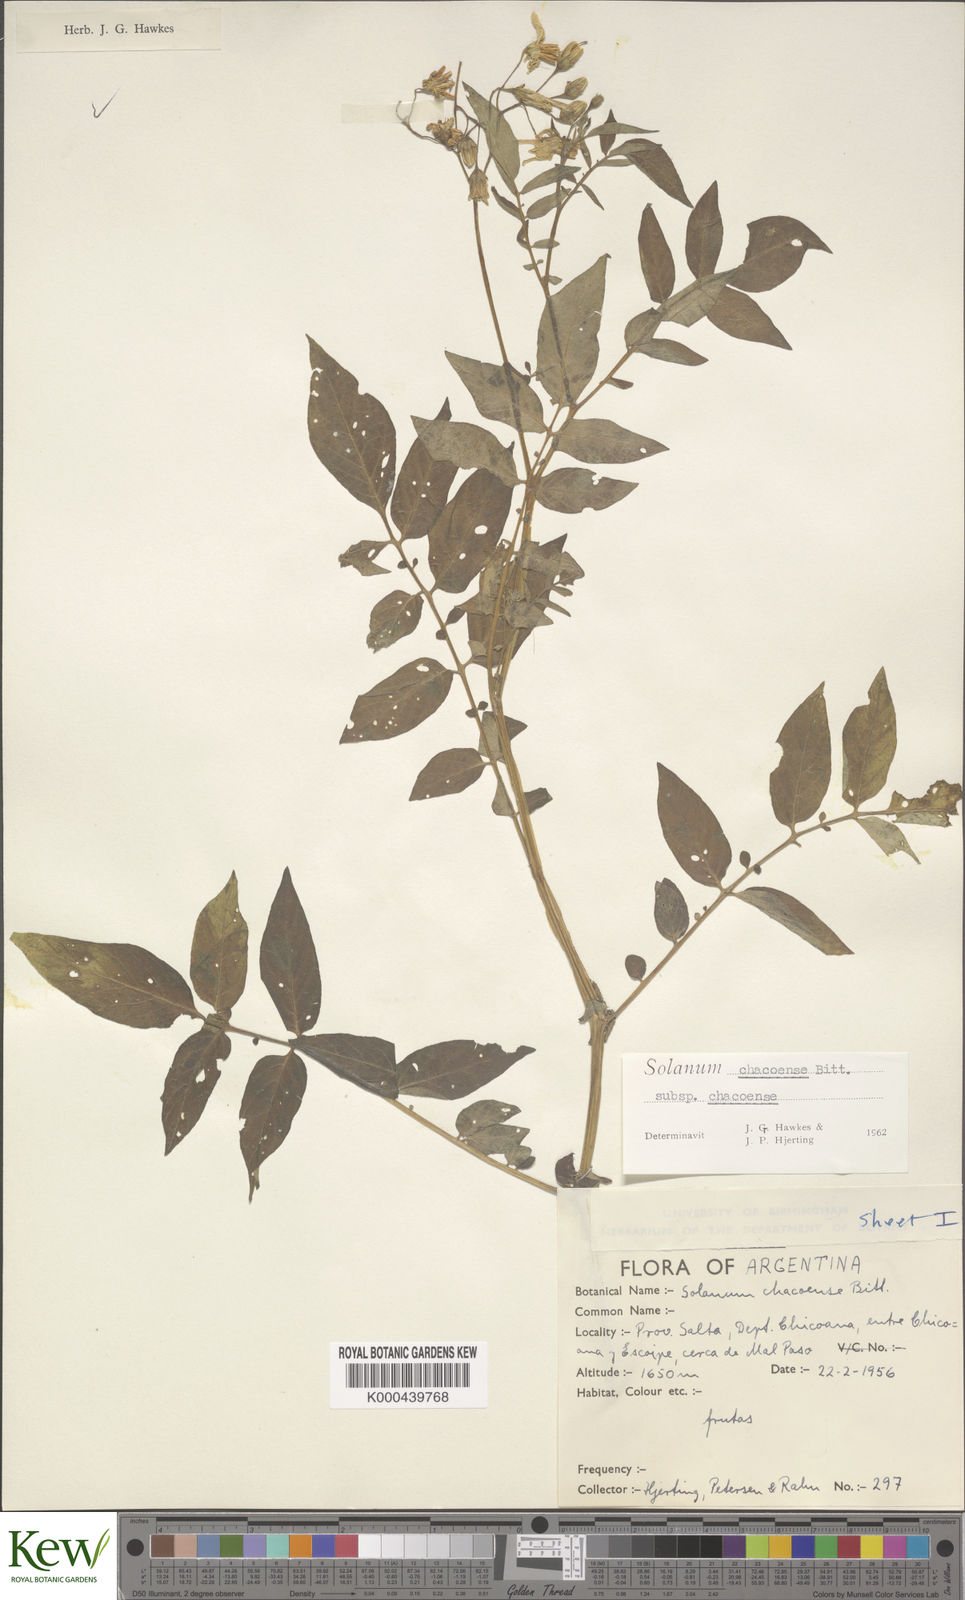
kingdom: Plantae
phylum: Tracheophyta
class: Magnoliopsida
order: Solanales
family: Solanaceae
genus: Solanum
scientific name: Solanum chacoense
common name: Chaco potato
